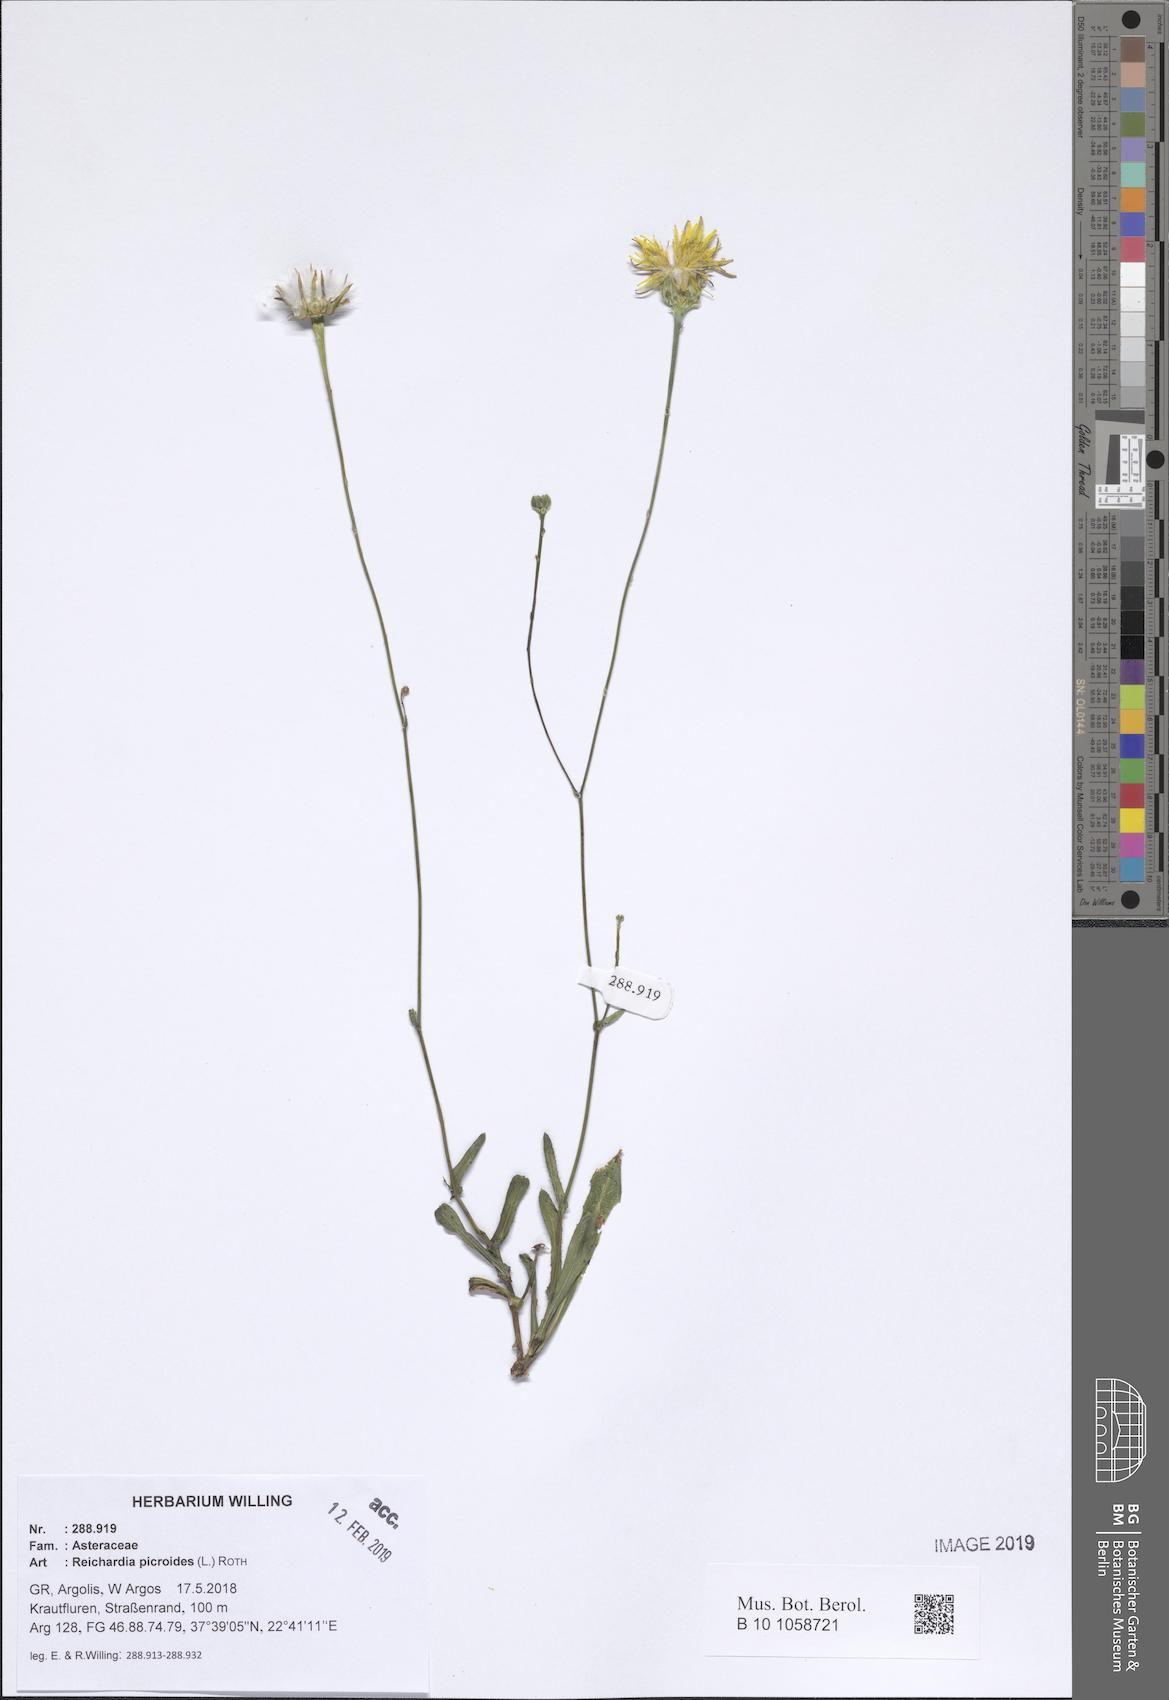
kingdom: Plantae
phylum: Tracheophyta
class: Magnoliopsida
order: Asterales
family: Asteraceae
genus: Reichardia
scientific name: Reichardia picroides
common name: Common brighteyes
